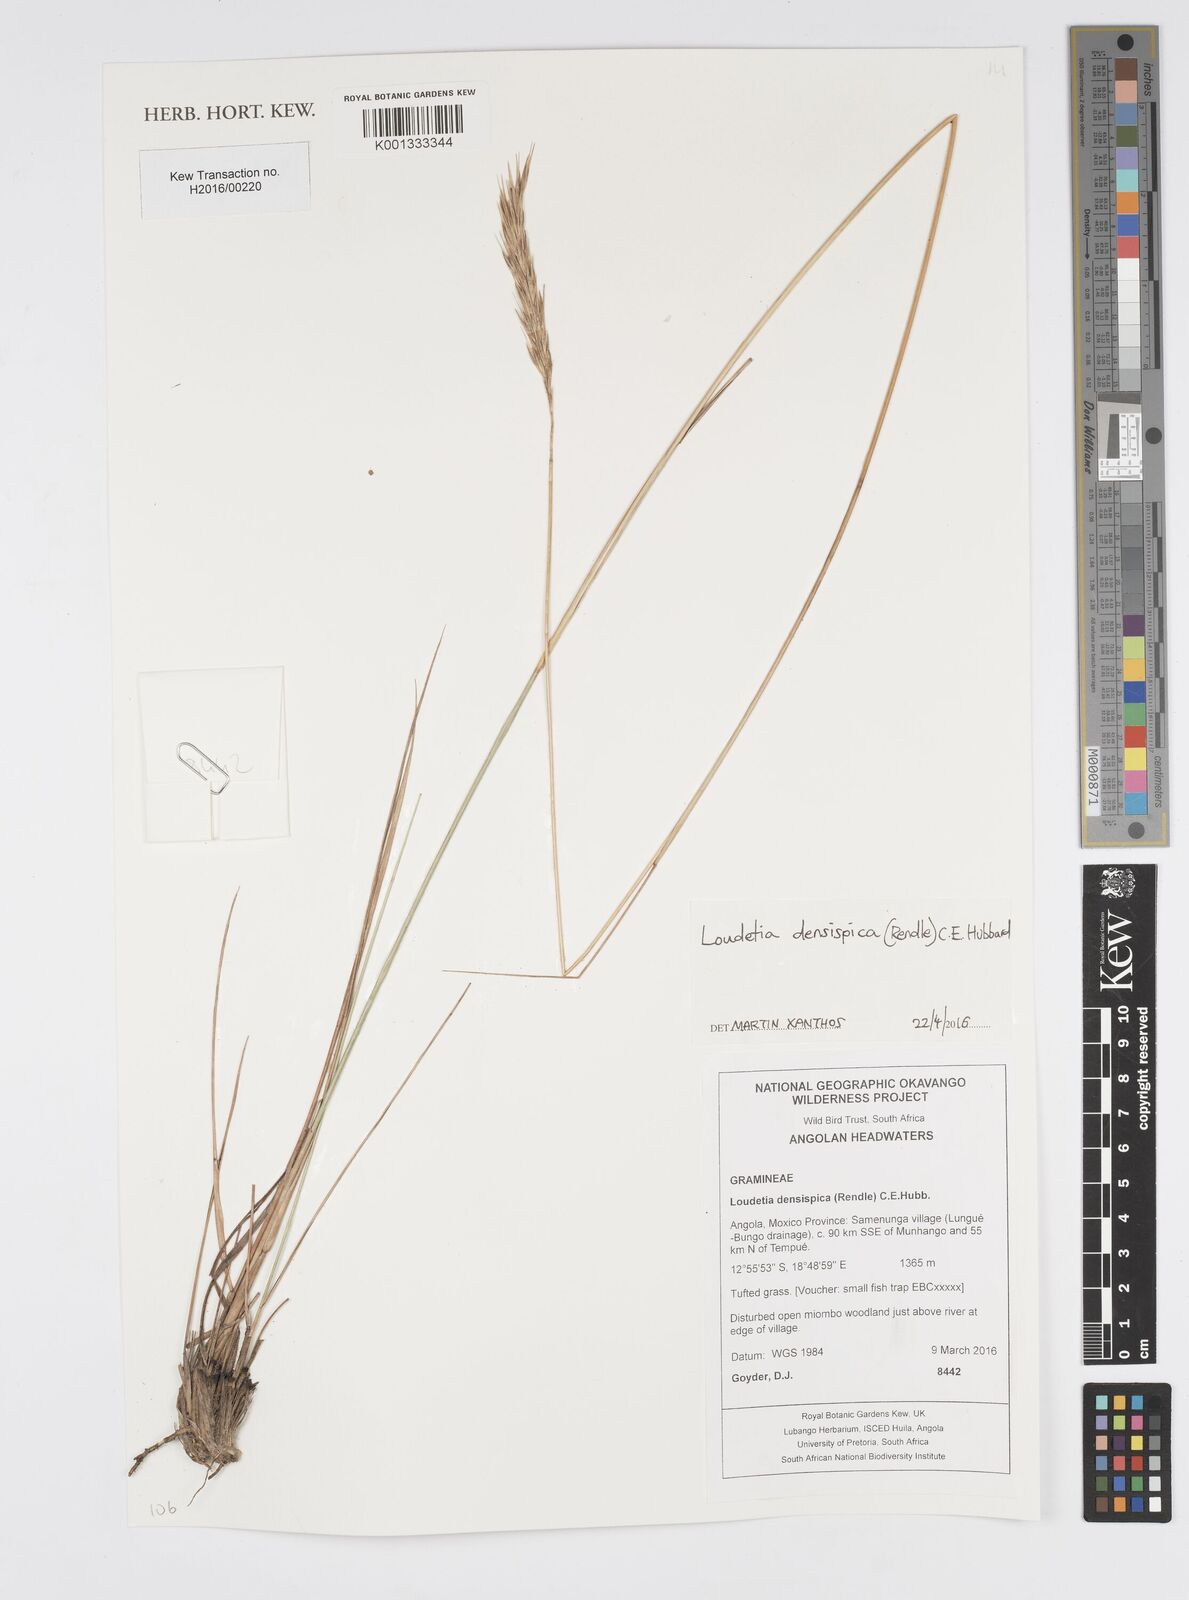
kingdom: Plantae
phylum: Tracheophyta
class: Liliopsida
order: Poales
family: Poaceae
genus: Loudetia
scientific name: Loudetia densispica
